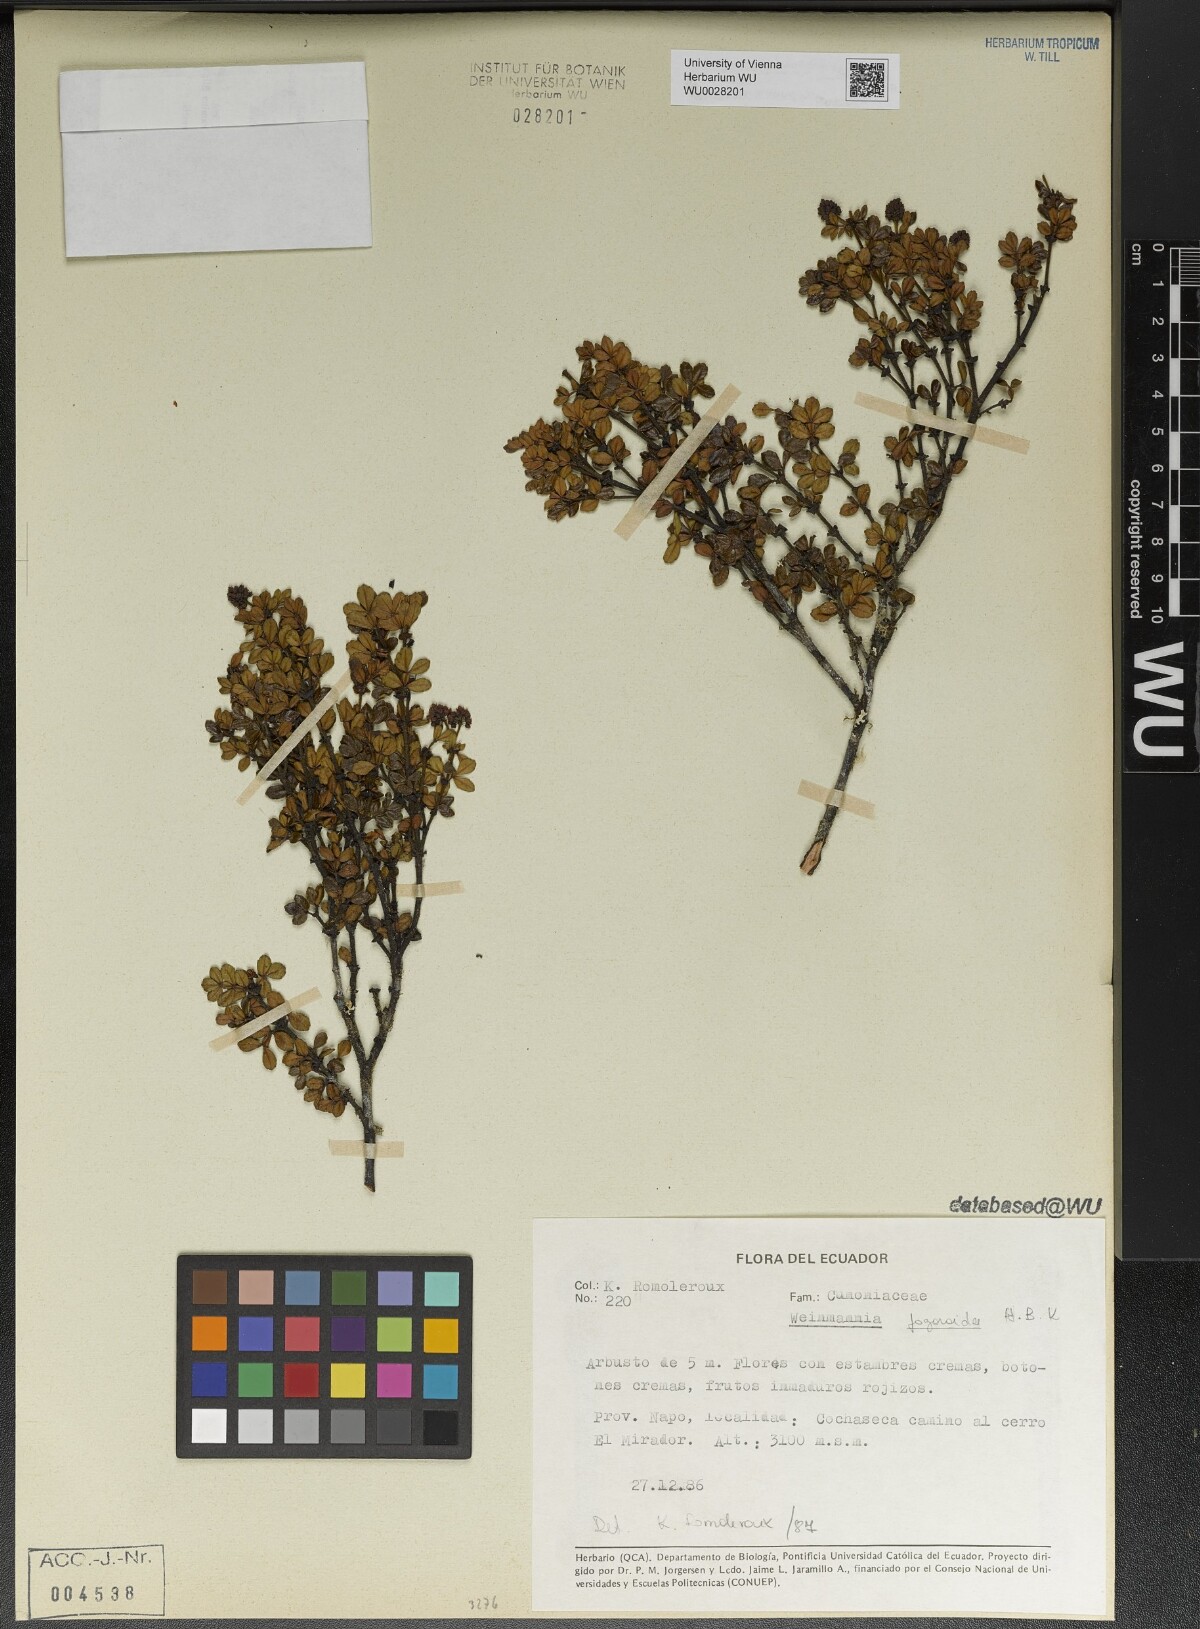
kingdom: Plantae
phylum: Tracheophyta
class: Magnoliopsida
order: Oxalidales
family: Cunoniaceae
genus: Weinmannia
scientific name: Weinmannia fagaroides
